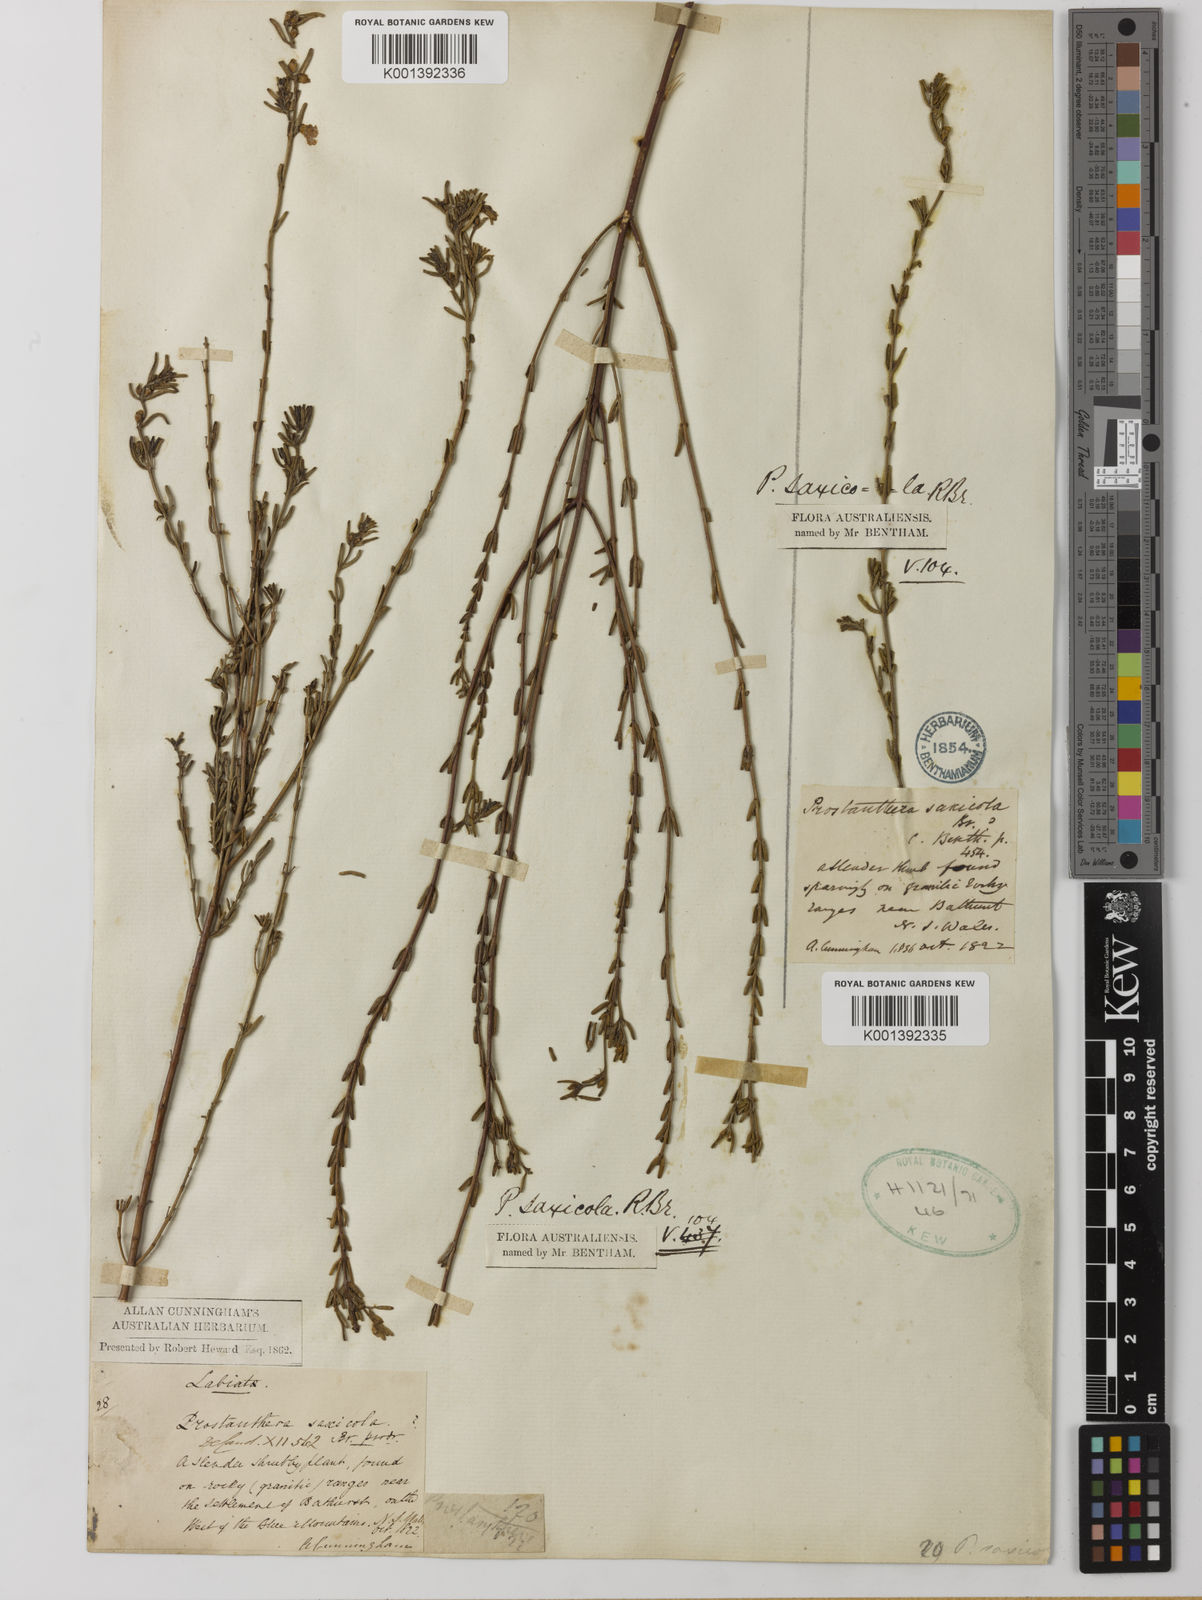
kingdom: Plantae
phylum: Tracheophyta
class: Magnoliopsida
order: Lamiales
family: Lamiaceae
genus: Prostanthera
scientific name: Prostanthera saxicola
